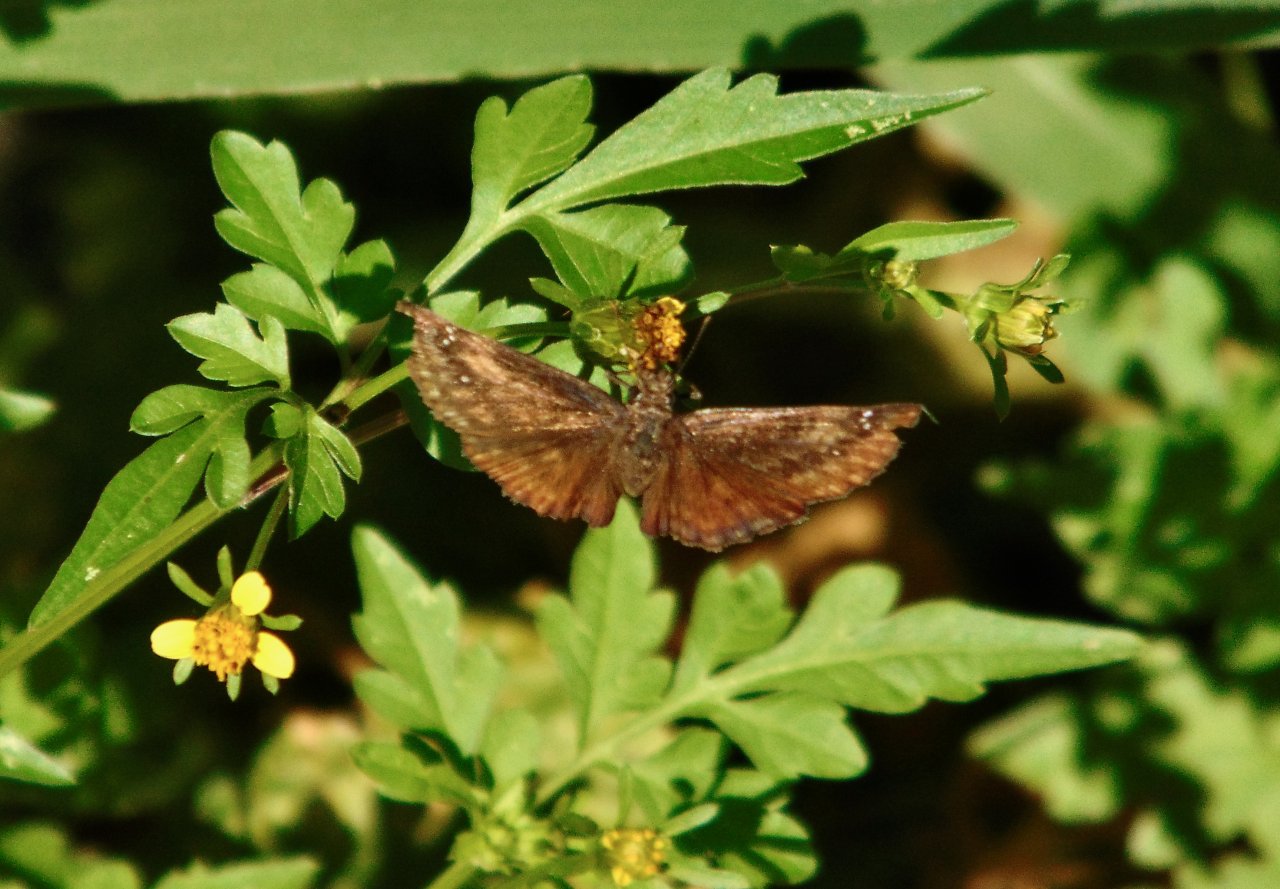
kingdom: Animalia
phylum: Arthropoda
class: Insecta
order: Lepidoptera
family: Hesperiidae
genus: Gesta
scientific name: Gesta
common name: Wild Indigo Duskywing
